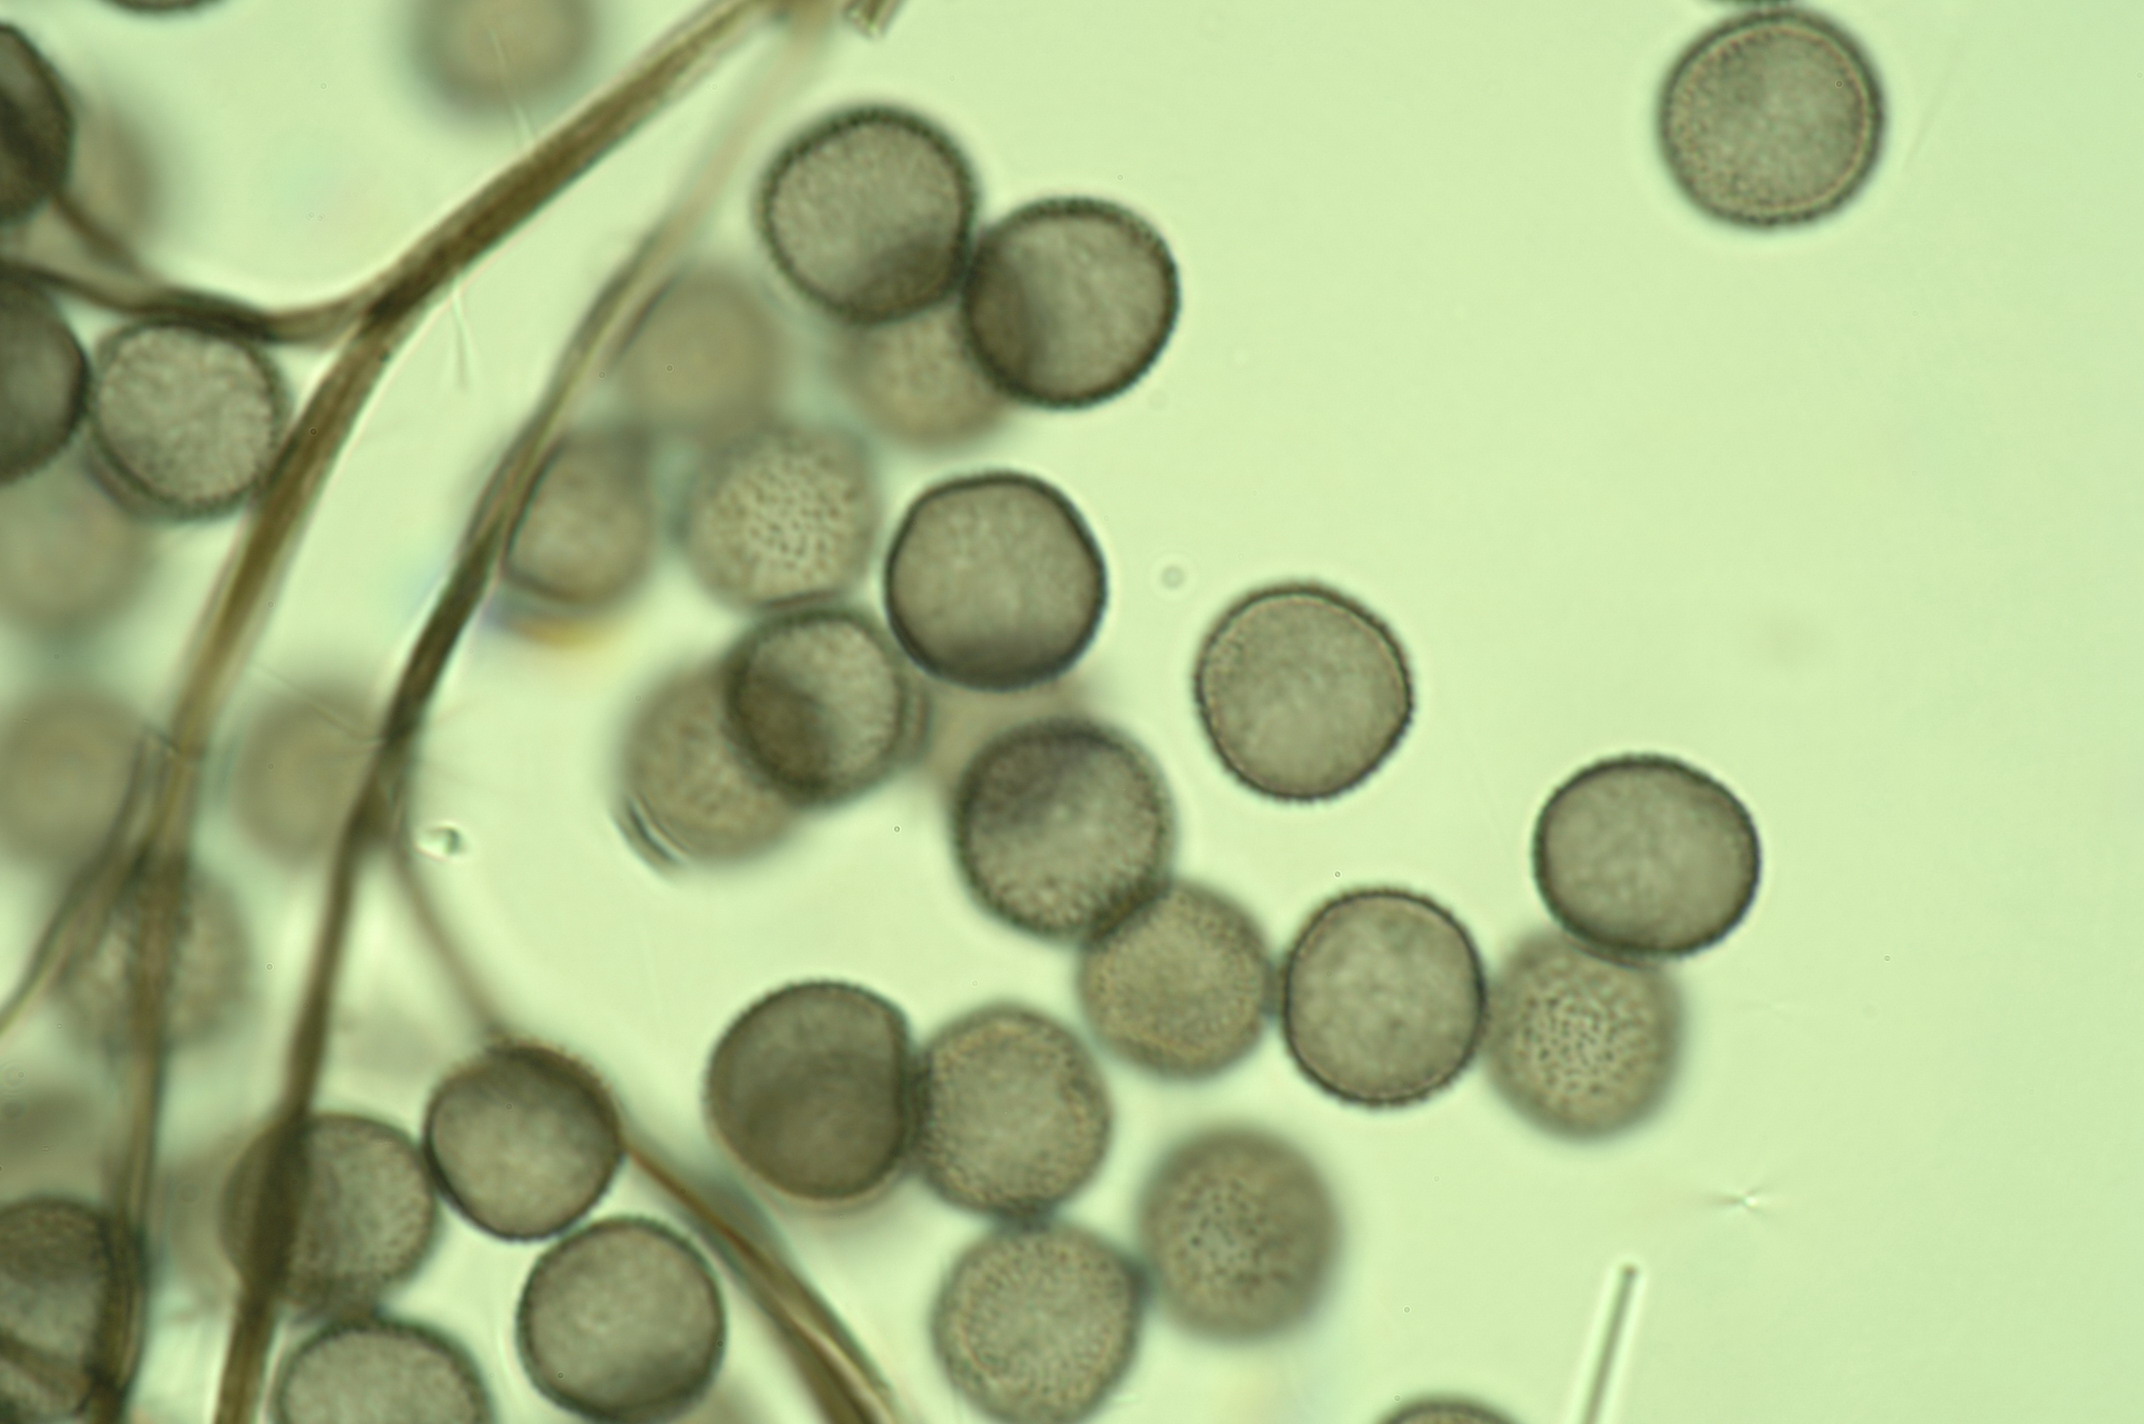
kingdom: Protozoa
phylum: Mycetozoa
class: Myxomycetes
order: Stemonitidales
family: Stemonitidaceae
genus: Lamproderma
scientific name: Lamproderma columbinum
